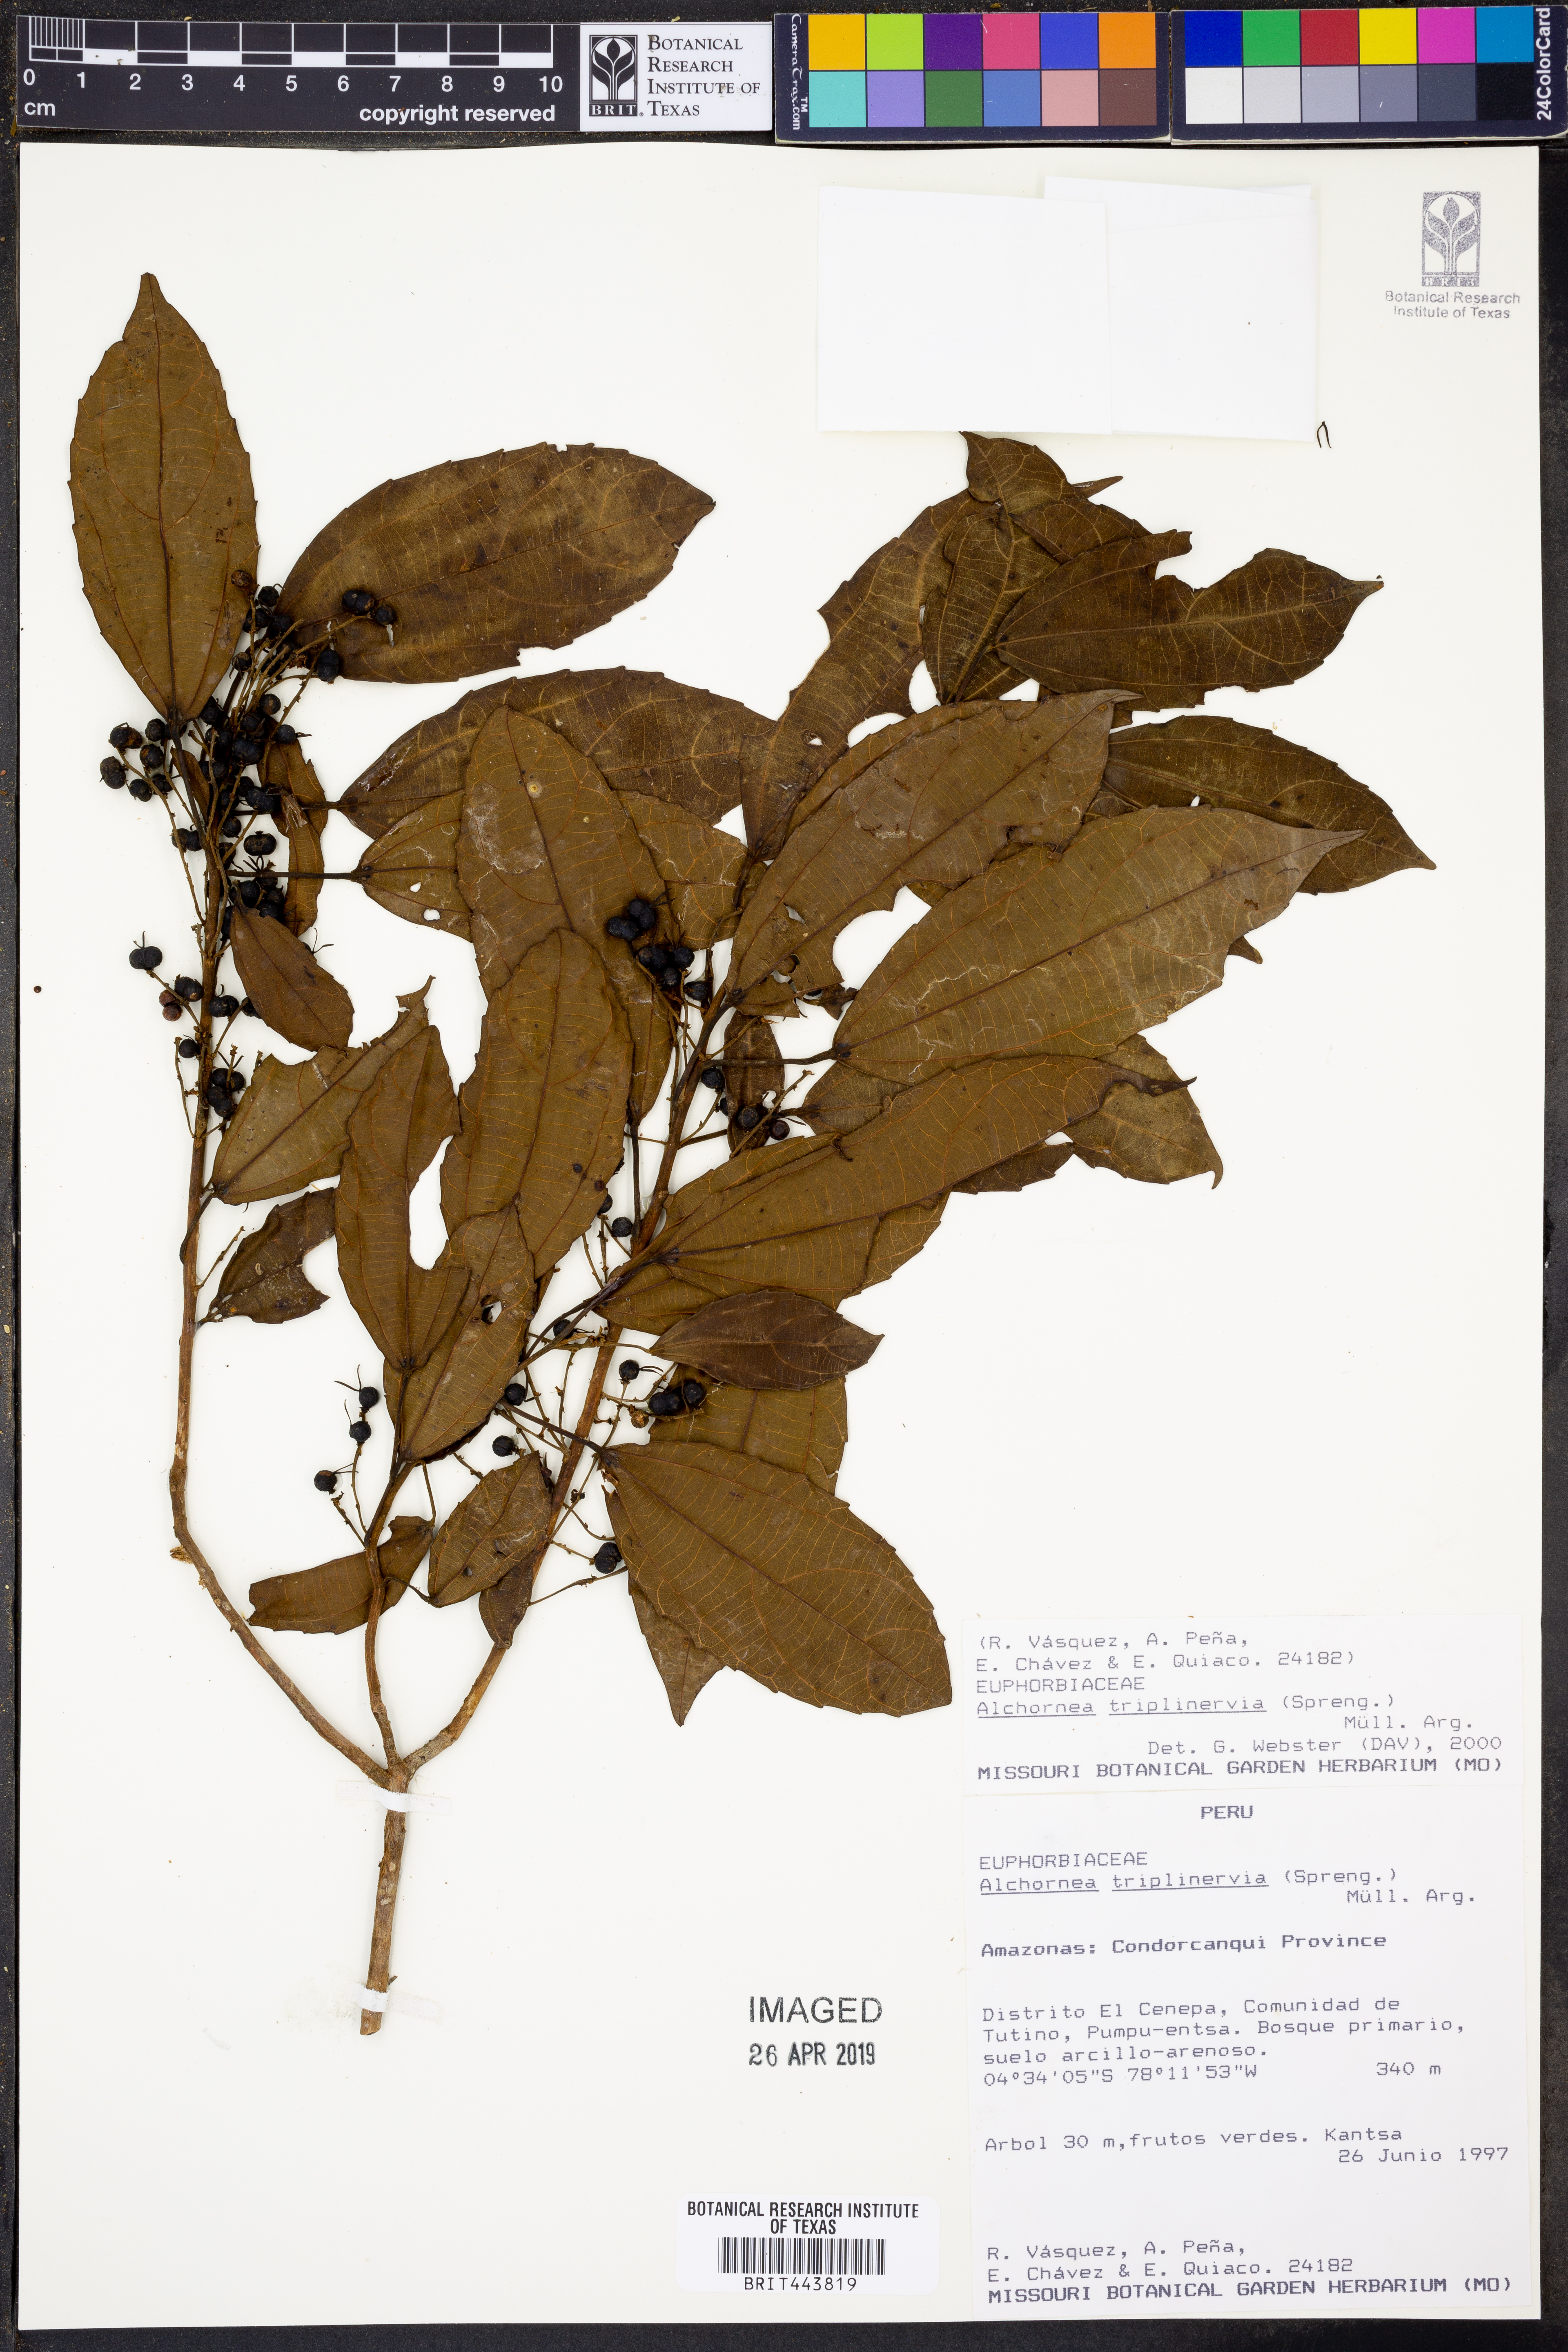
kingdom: Plantae
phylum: Tracheophyta
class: Magnoliopsida
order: Malpighiales
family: Euphorbiaceae
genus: Alchornea
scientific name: Alchornea triplinervia
